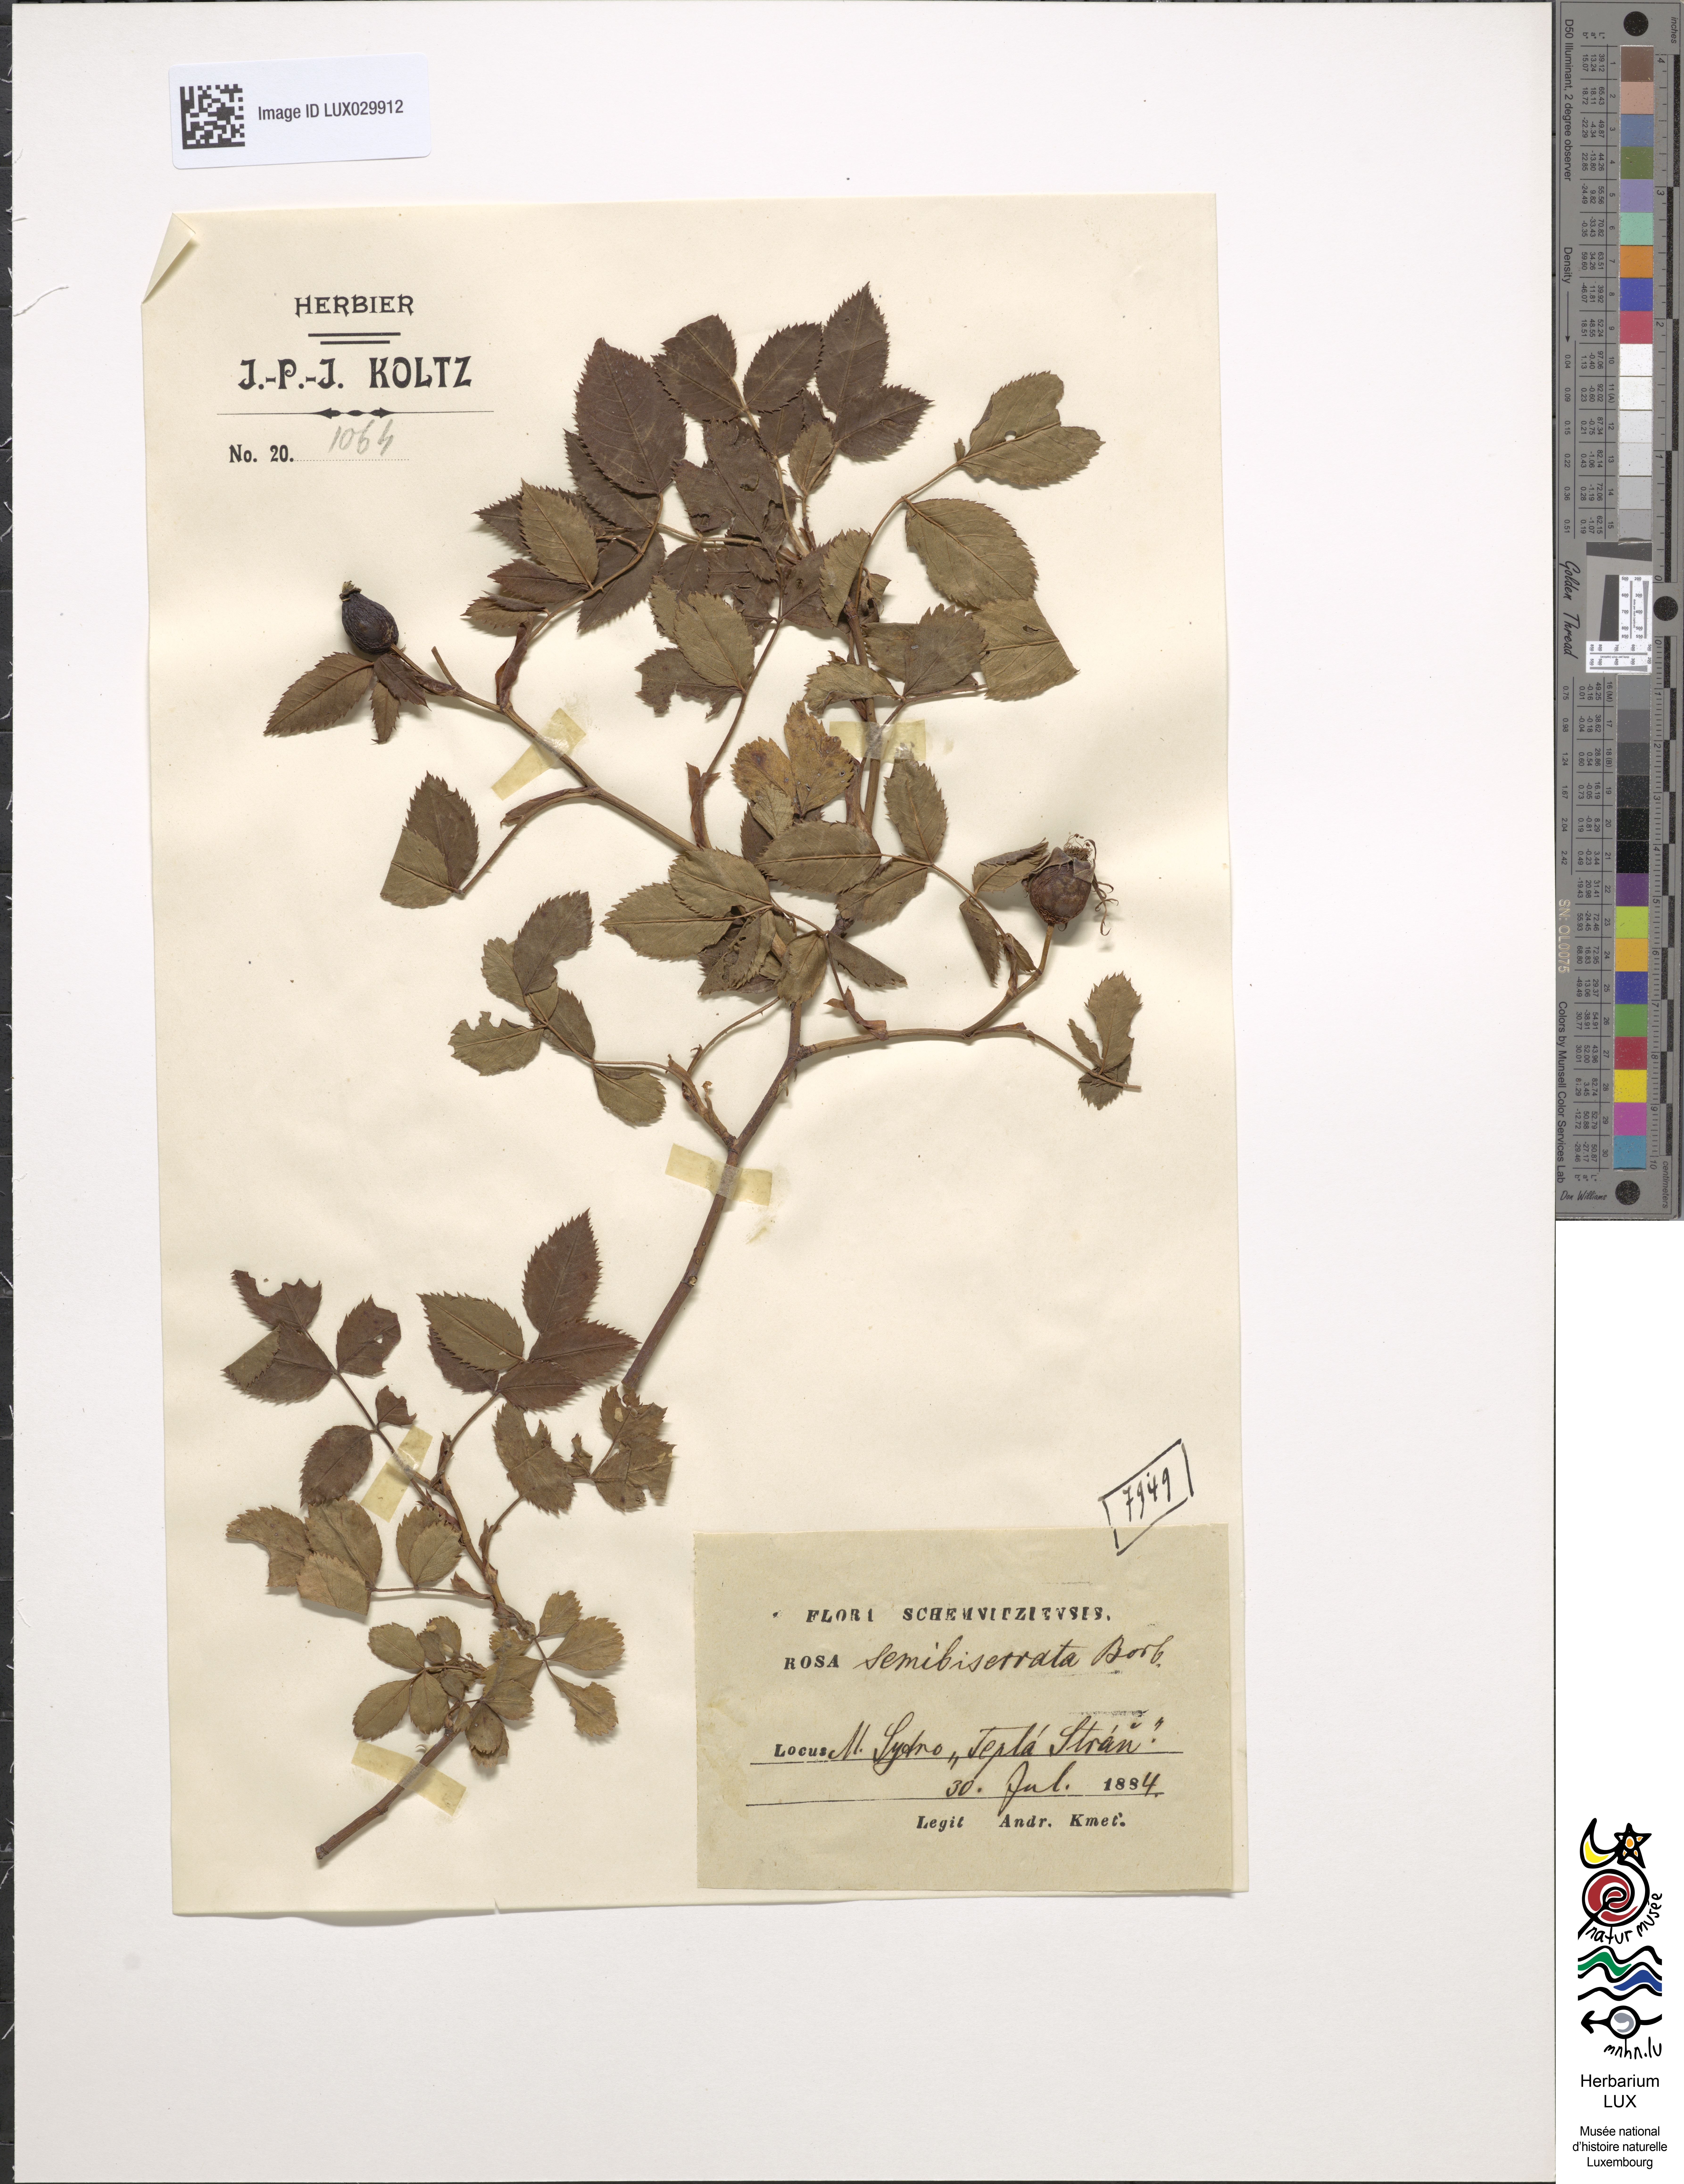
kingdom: Plantae
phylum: Tracheophyta
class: Magnoliopsida
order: Rosales
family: Rosaceae
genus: Rosa
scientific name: Rosa canina
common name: Dog rose
